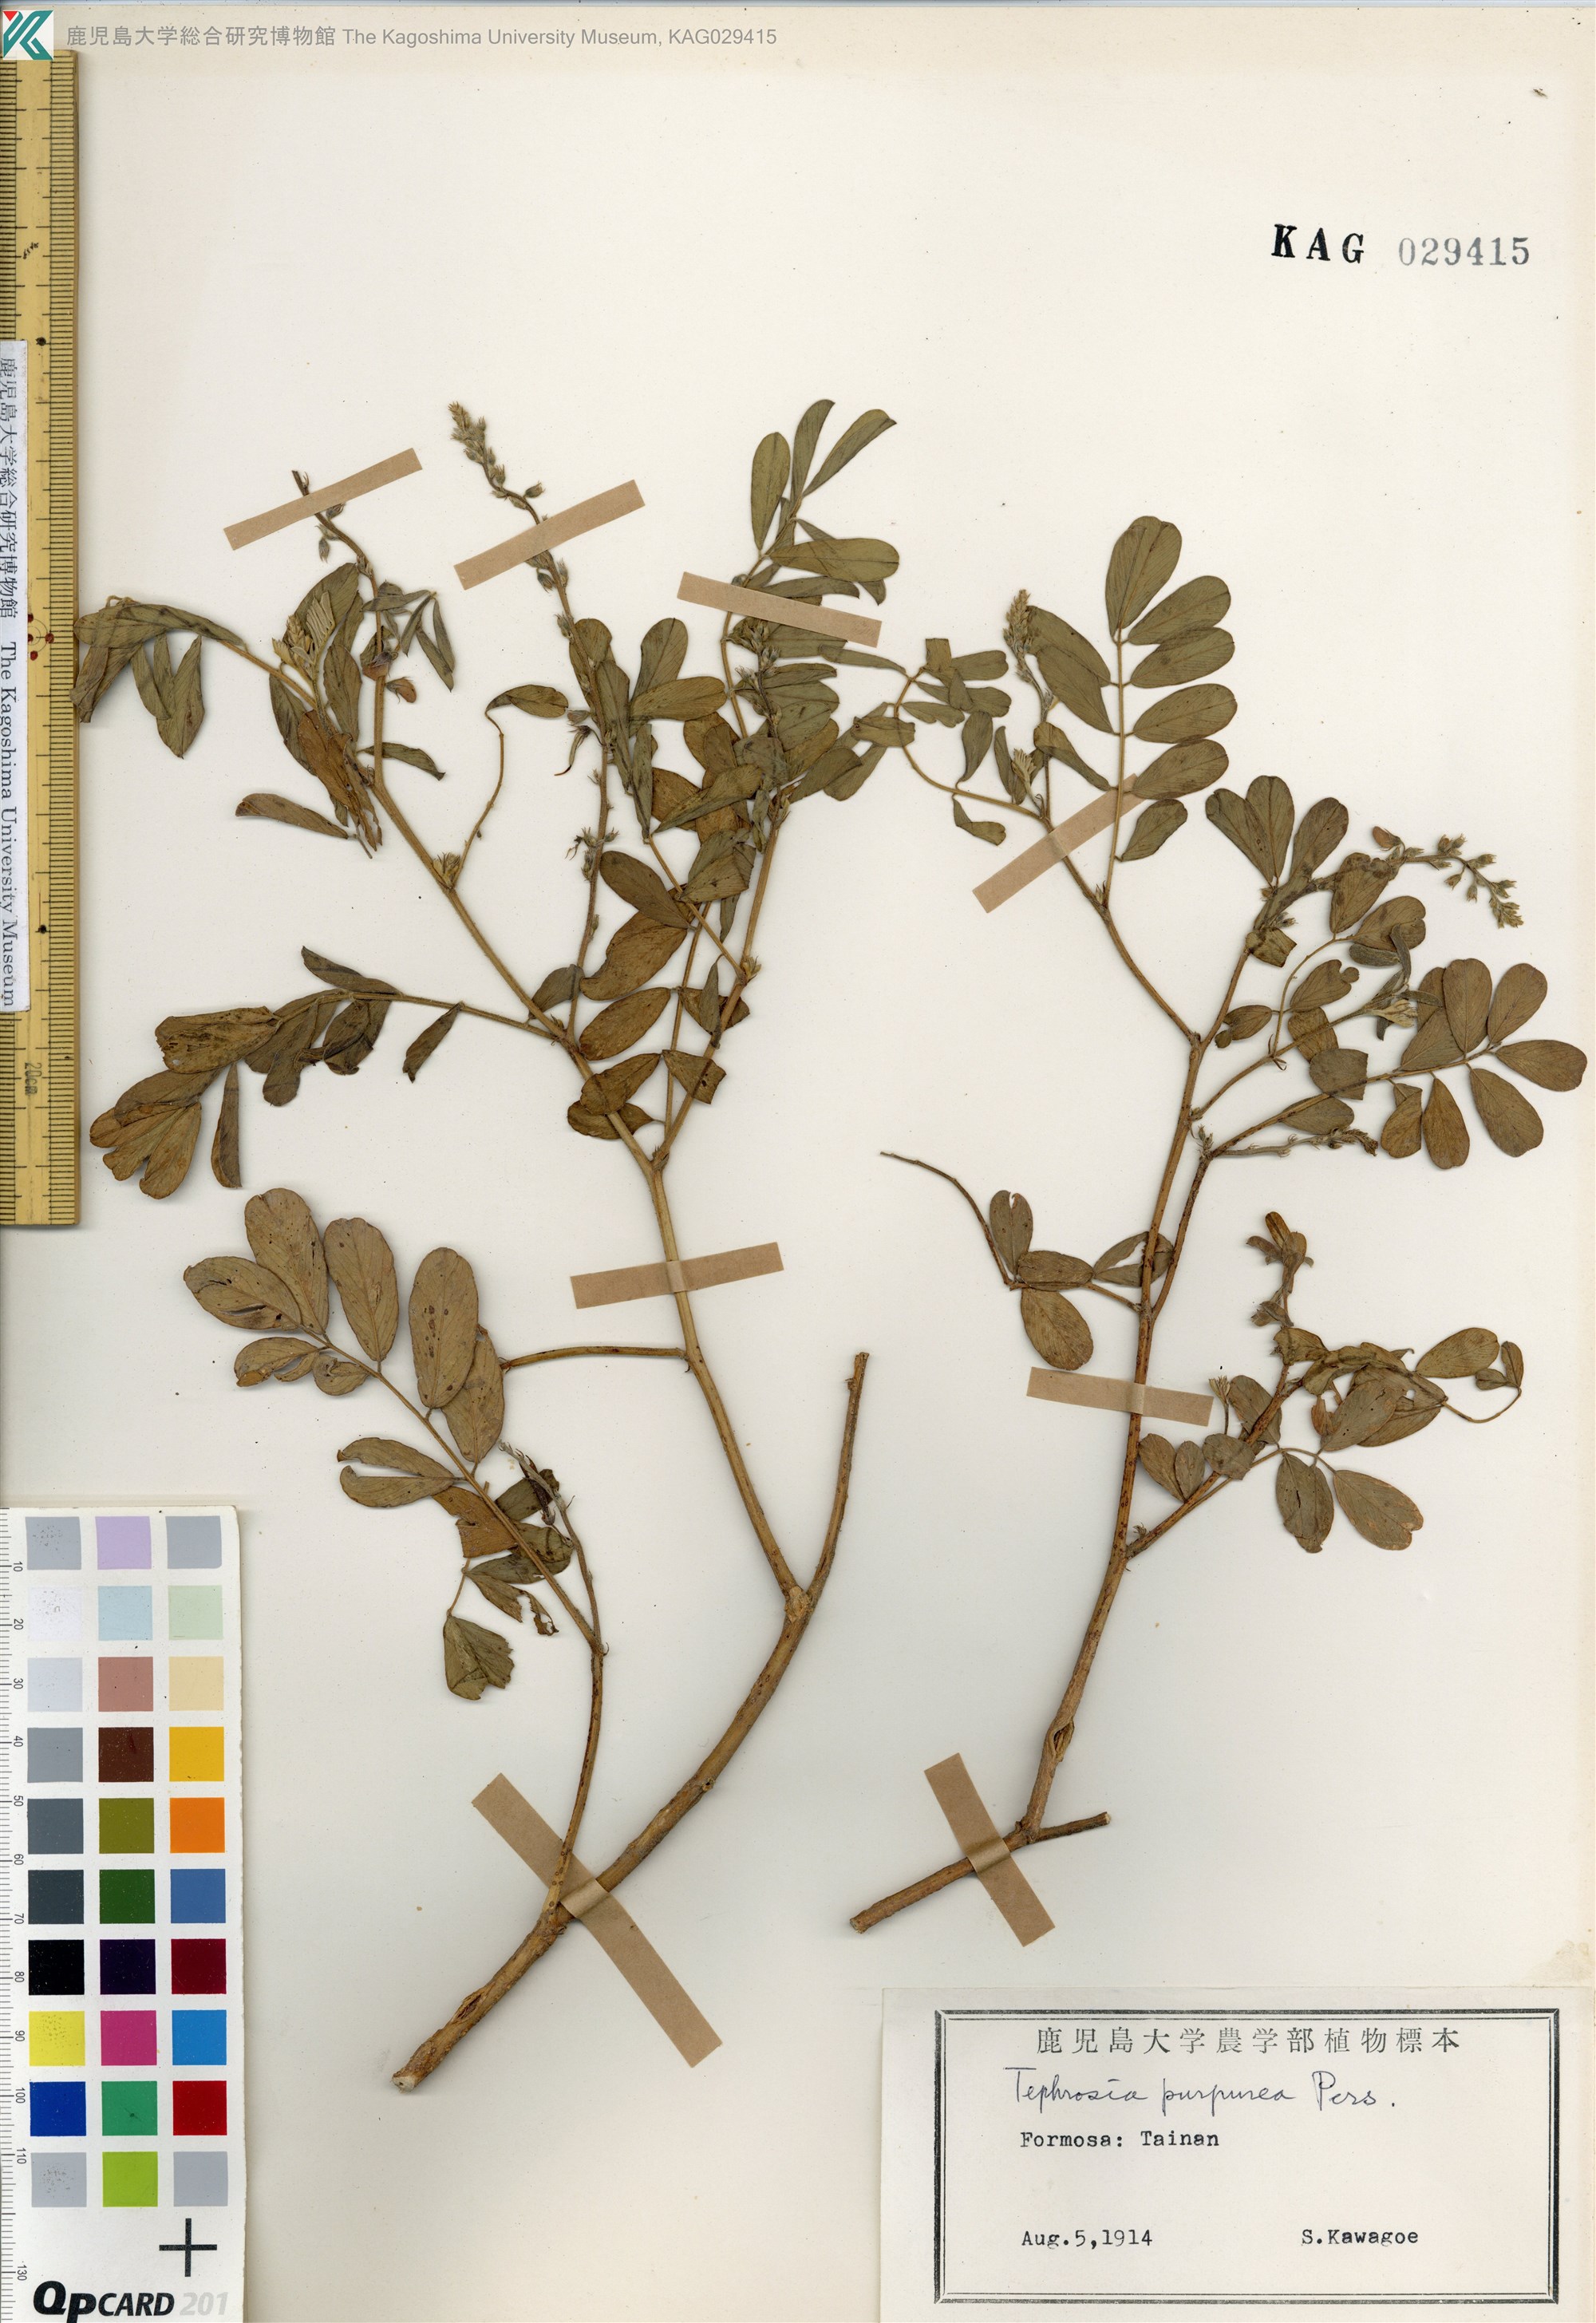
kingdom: Plantae
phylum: Tracheophyta
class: Magnoliopsida
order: Fabales
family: Fabaceae
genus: Tephrosia
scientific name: Tephrosia purpurea
